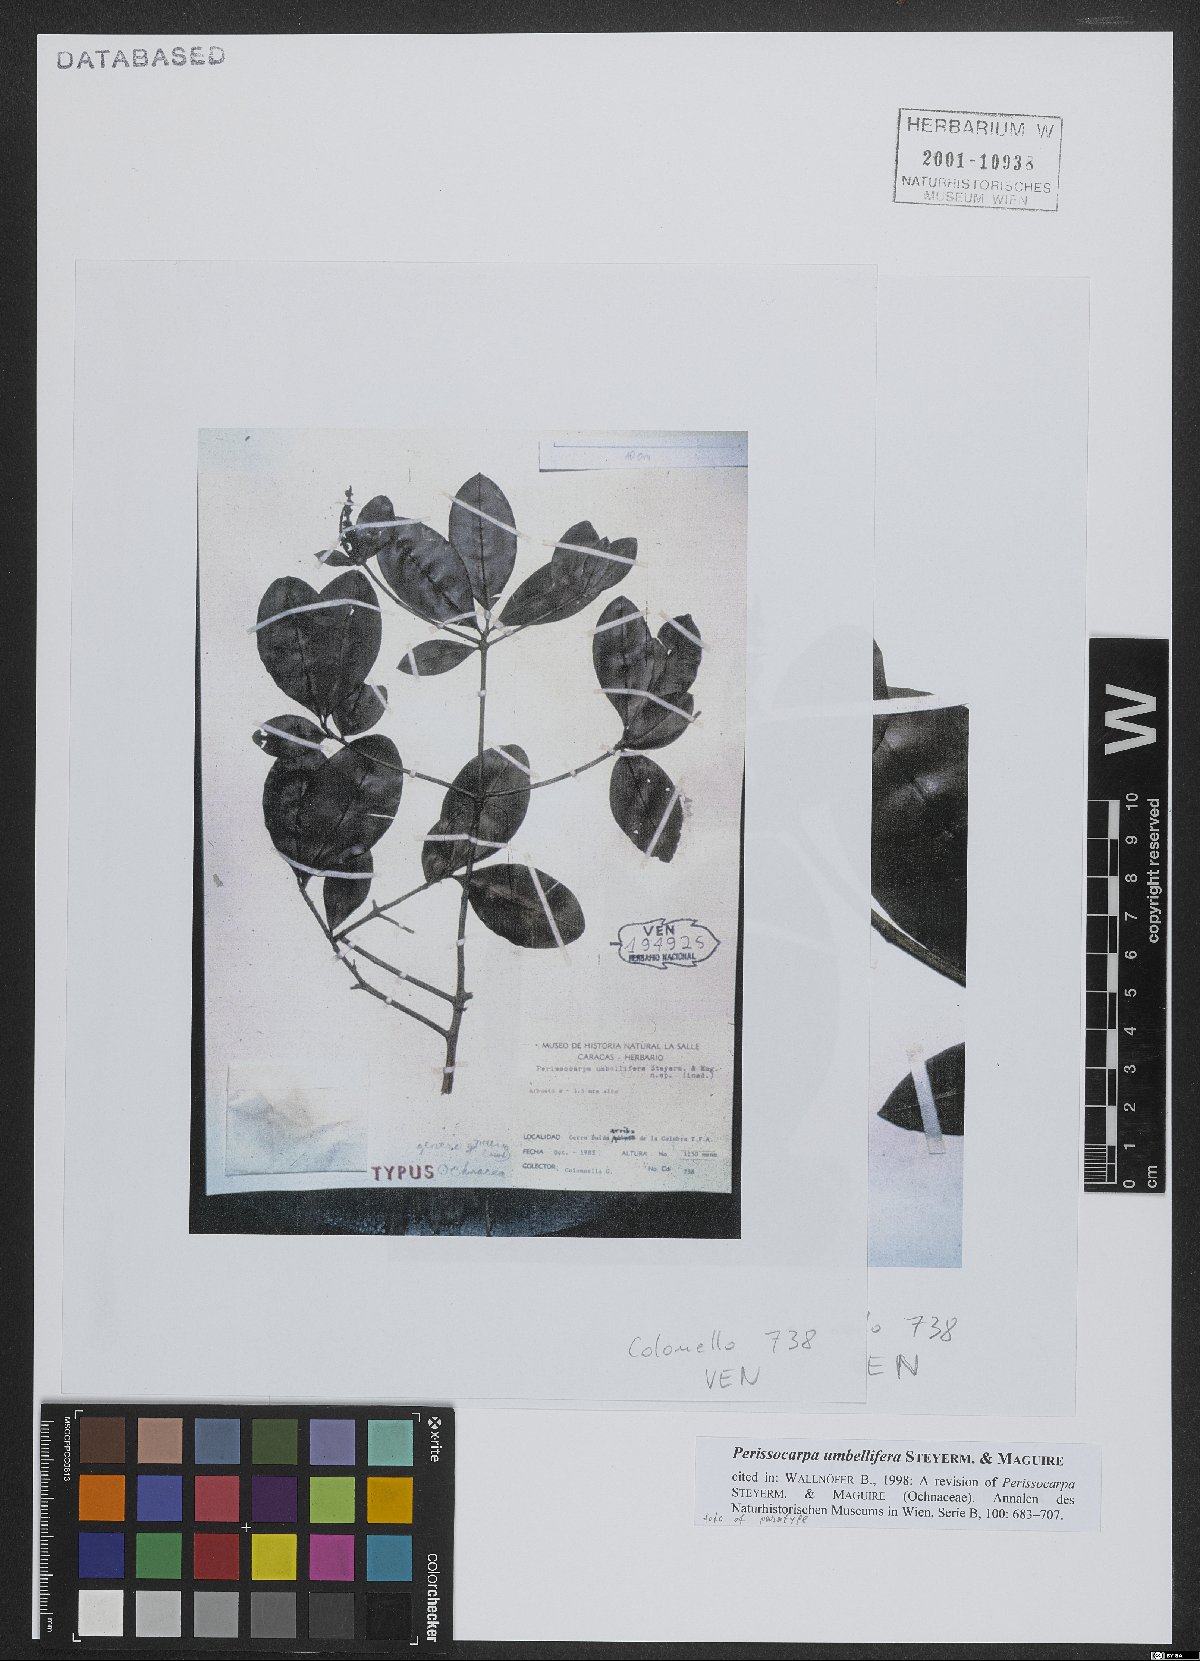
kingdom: Plantae
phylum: Tracheophyta
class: Magnoliopsida
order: Malpighiales
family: Ochnaceae
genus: Perissocarpa
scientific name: Perissocarpa umbellifera
